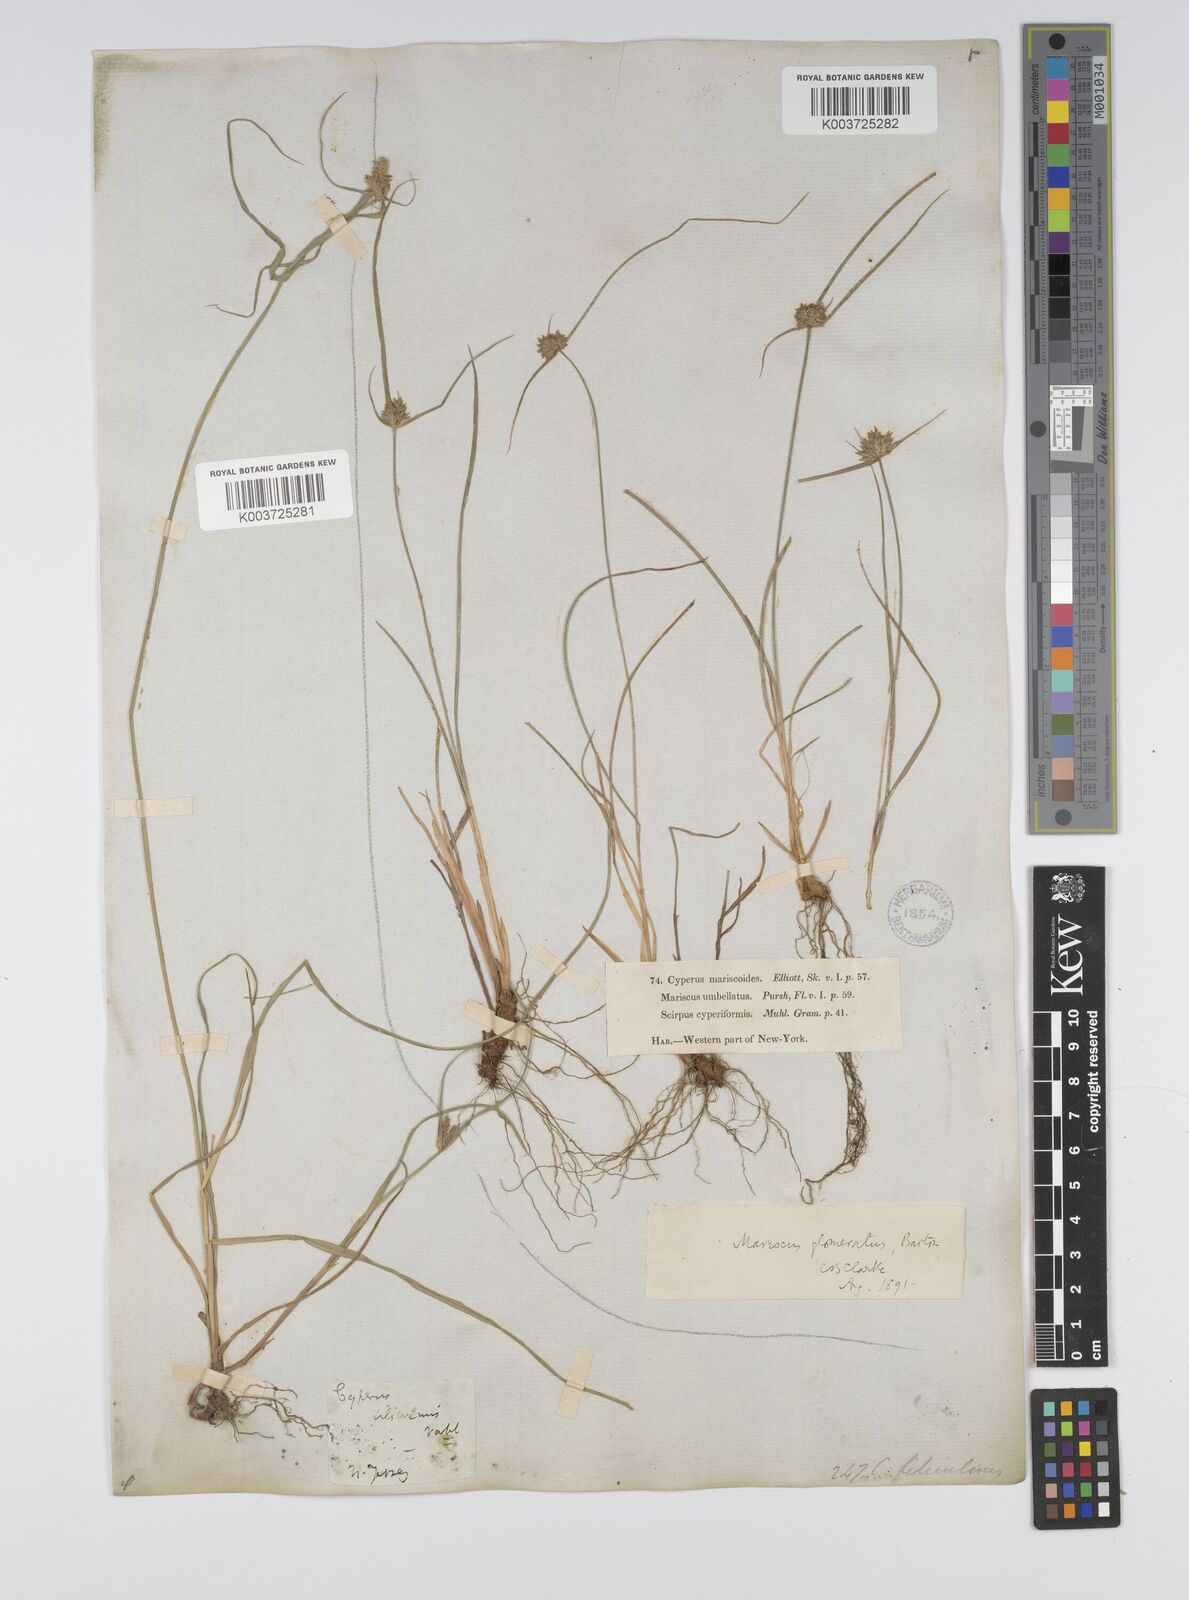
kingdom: Plantae
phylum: Tracheophyta
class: Liliopsida
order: Poales
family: Cyperaceae
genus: Cyperus
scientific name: Cyperus lupulinus
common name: Great plains flatsedge
